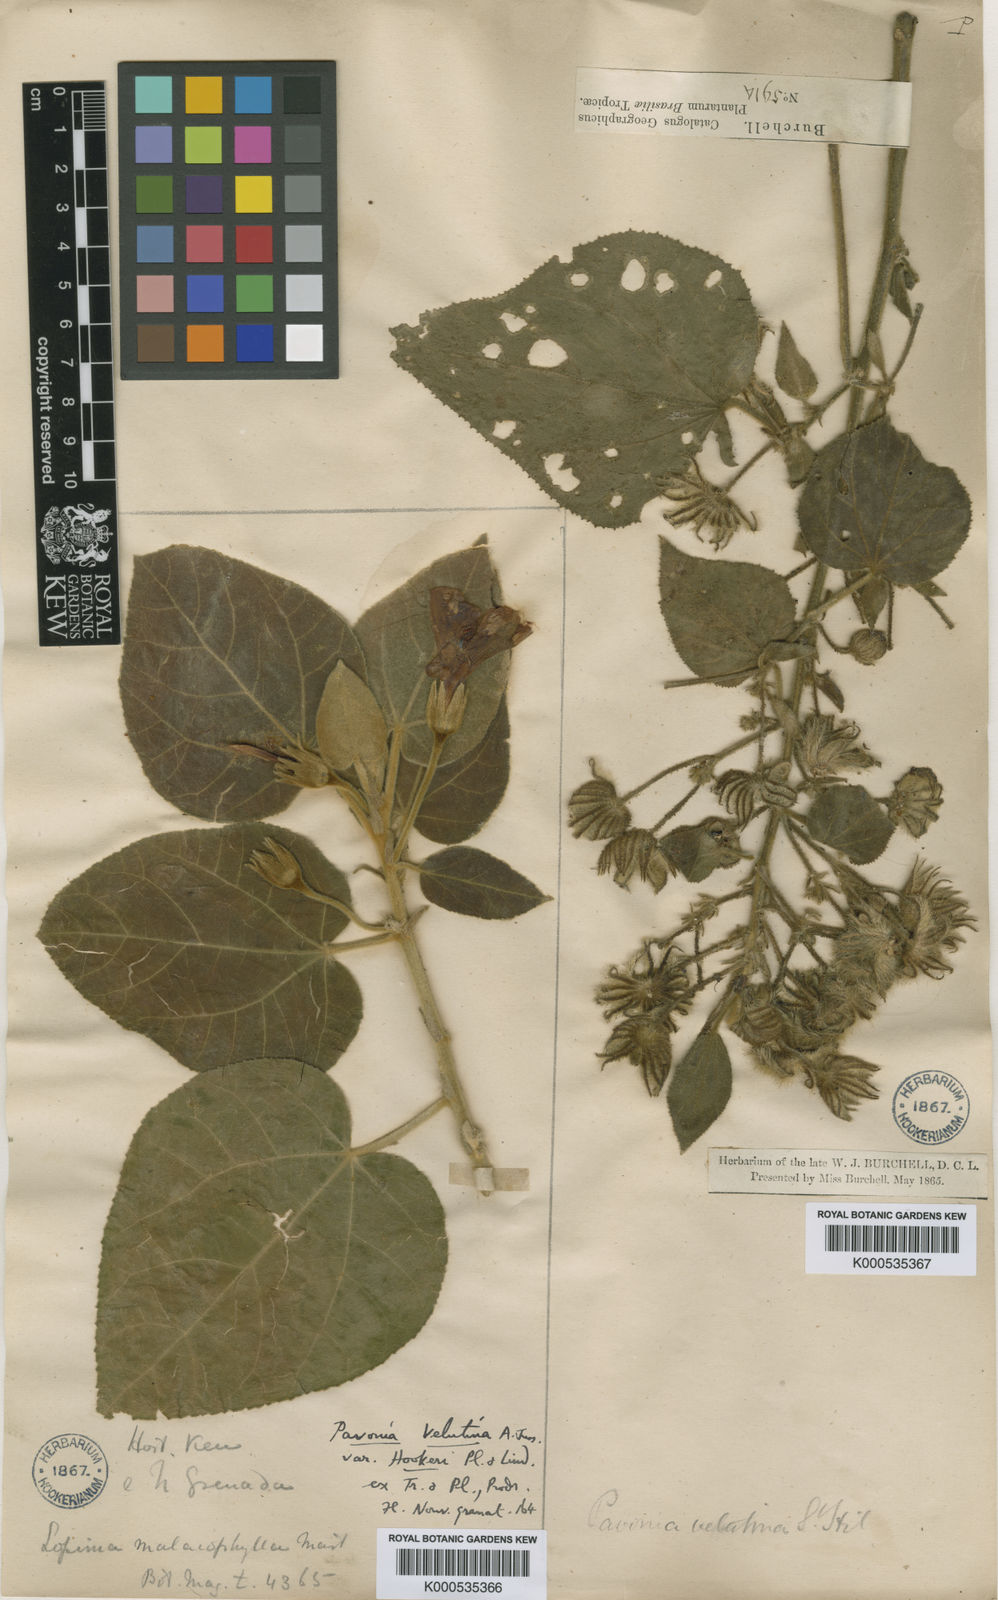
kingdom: Plantae
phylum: Tracheophyta
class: Magnoliopsida
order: Malvales
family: Malvaceae
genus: Pavonia
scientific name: Pavonia malacophylla
